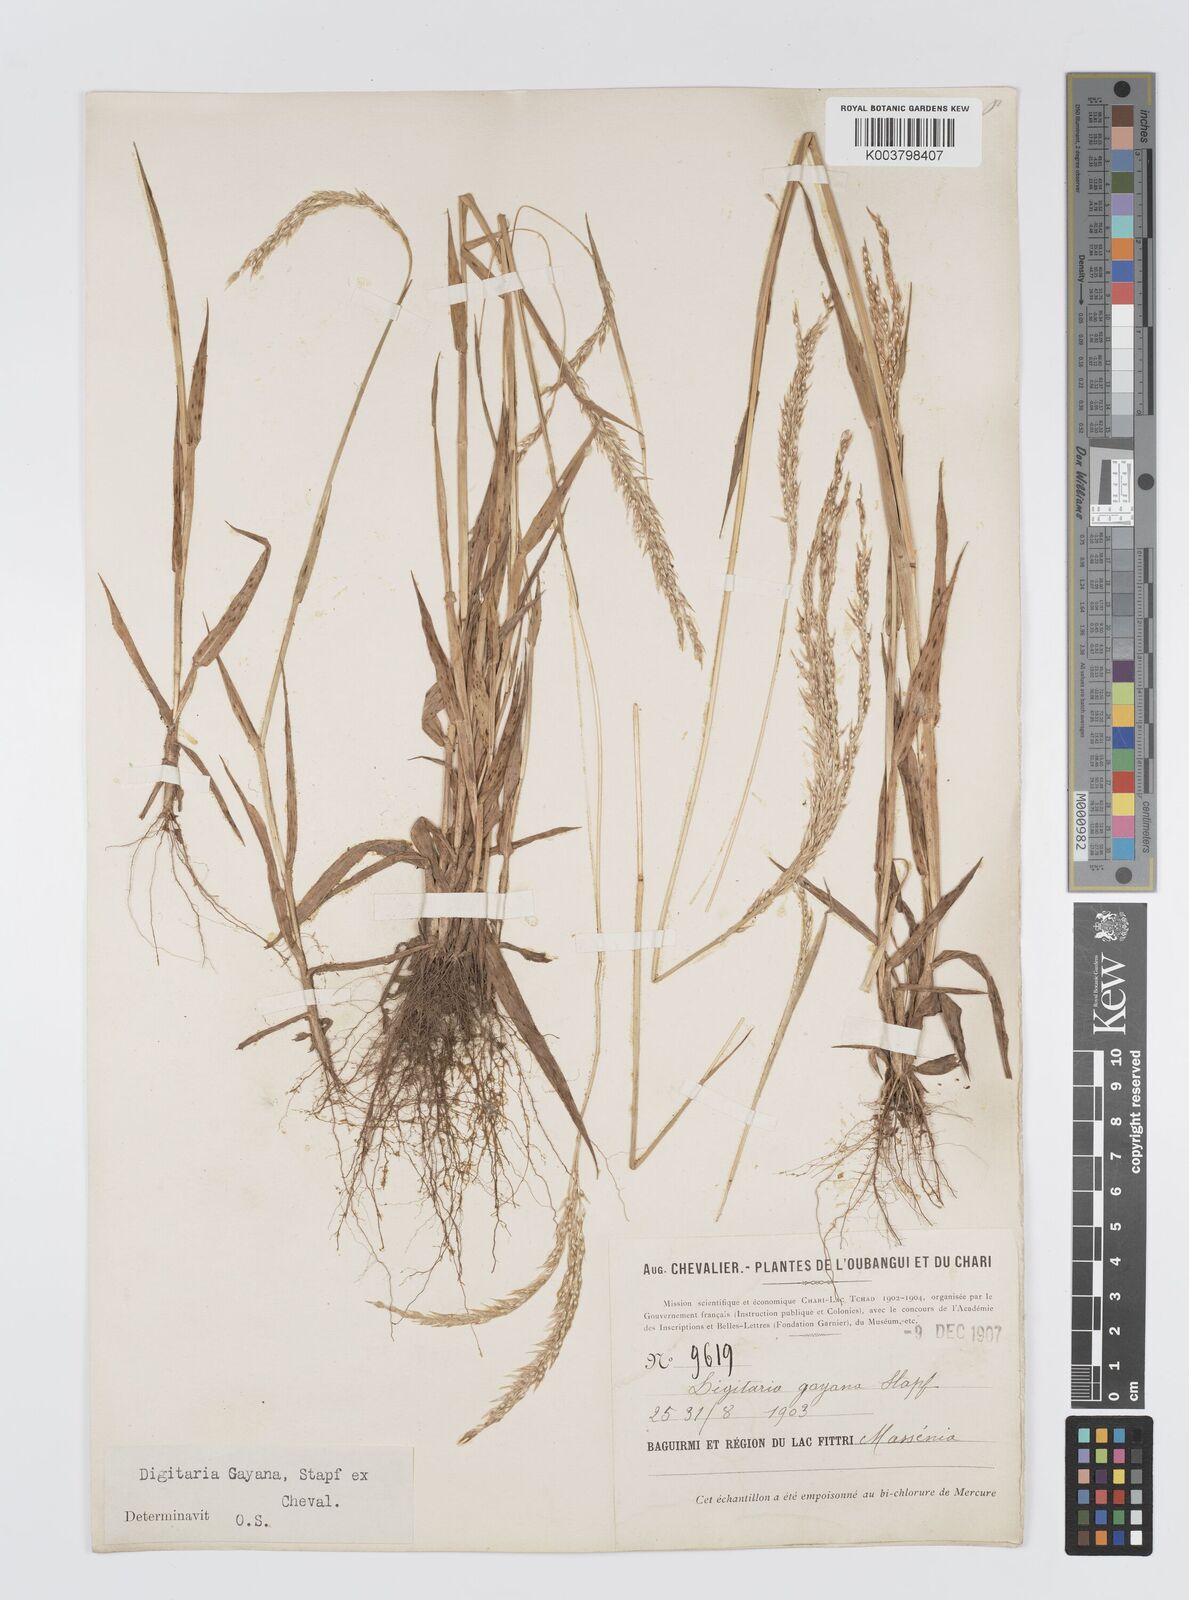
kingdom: Plantae
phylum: Tracheophyta
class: Liliopsida
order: Poales
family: Poaceae
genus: Digitaria
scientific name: Digitaria gayana
